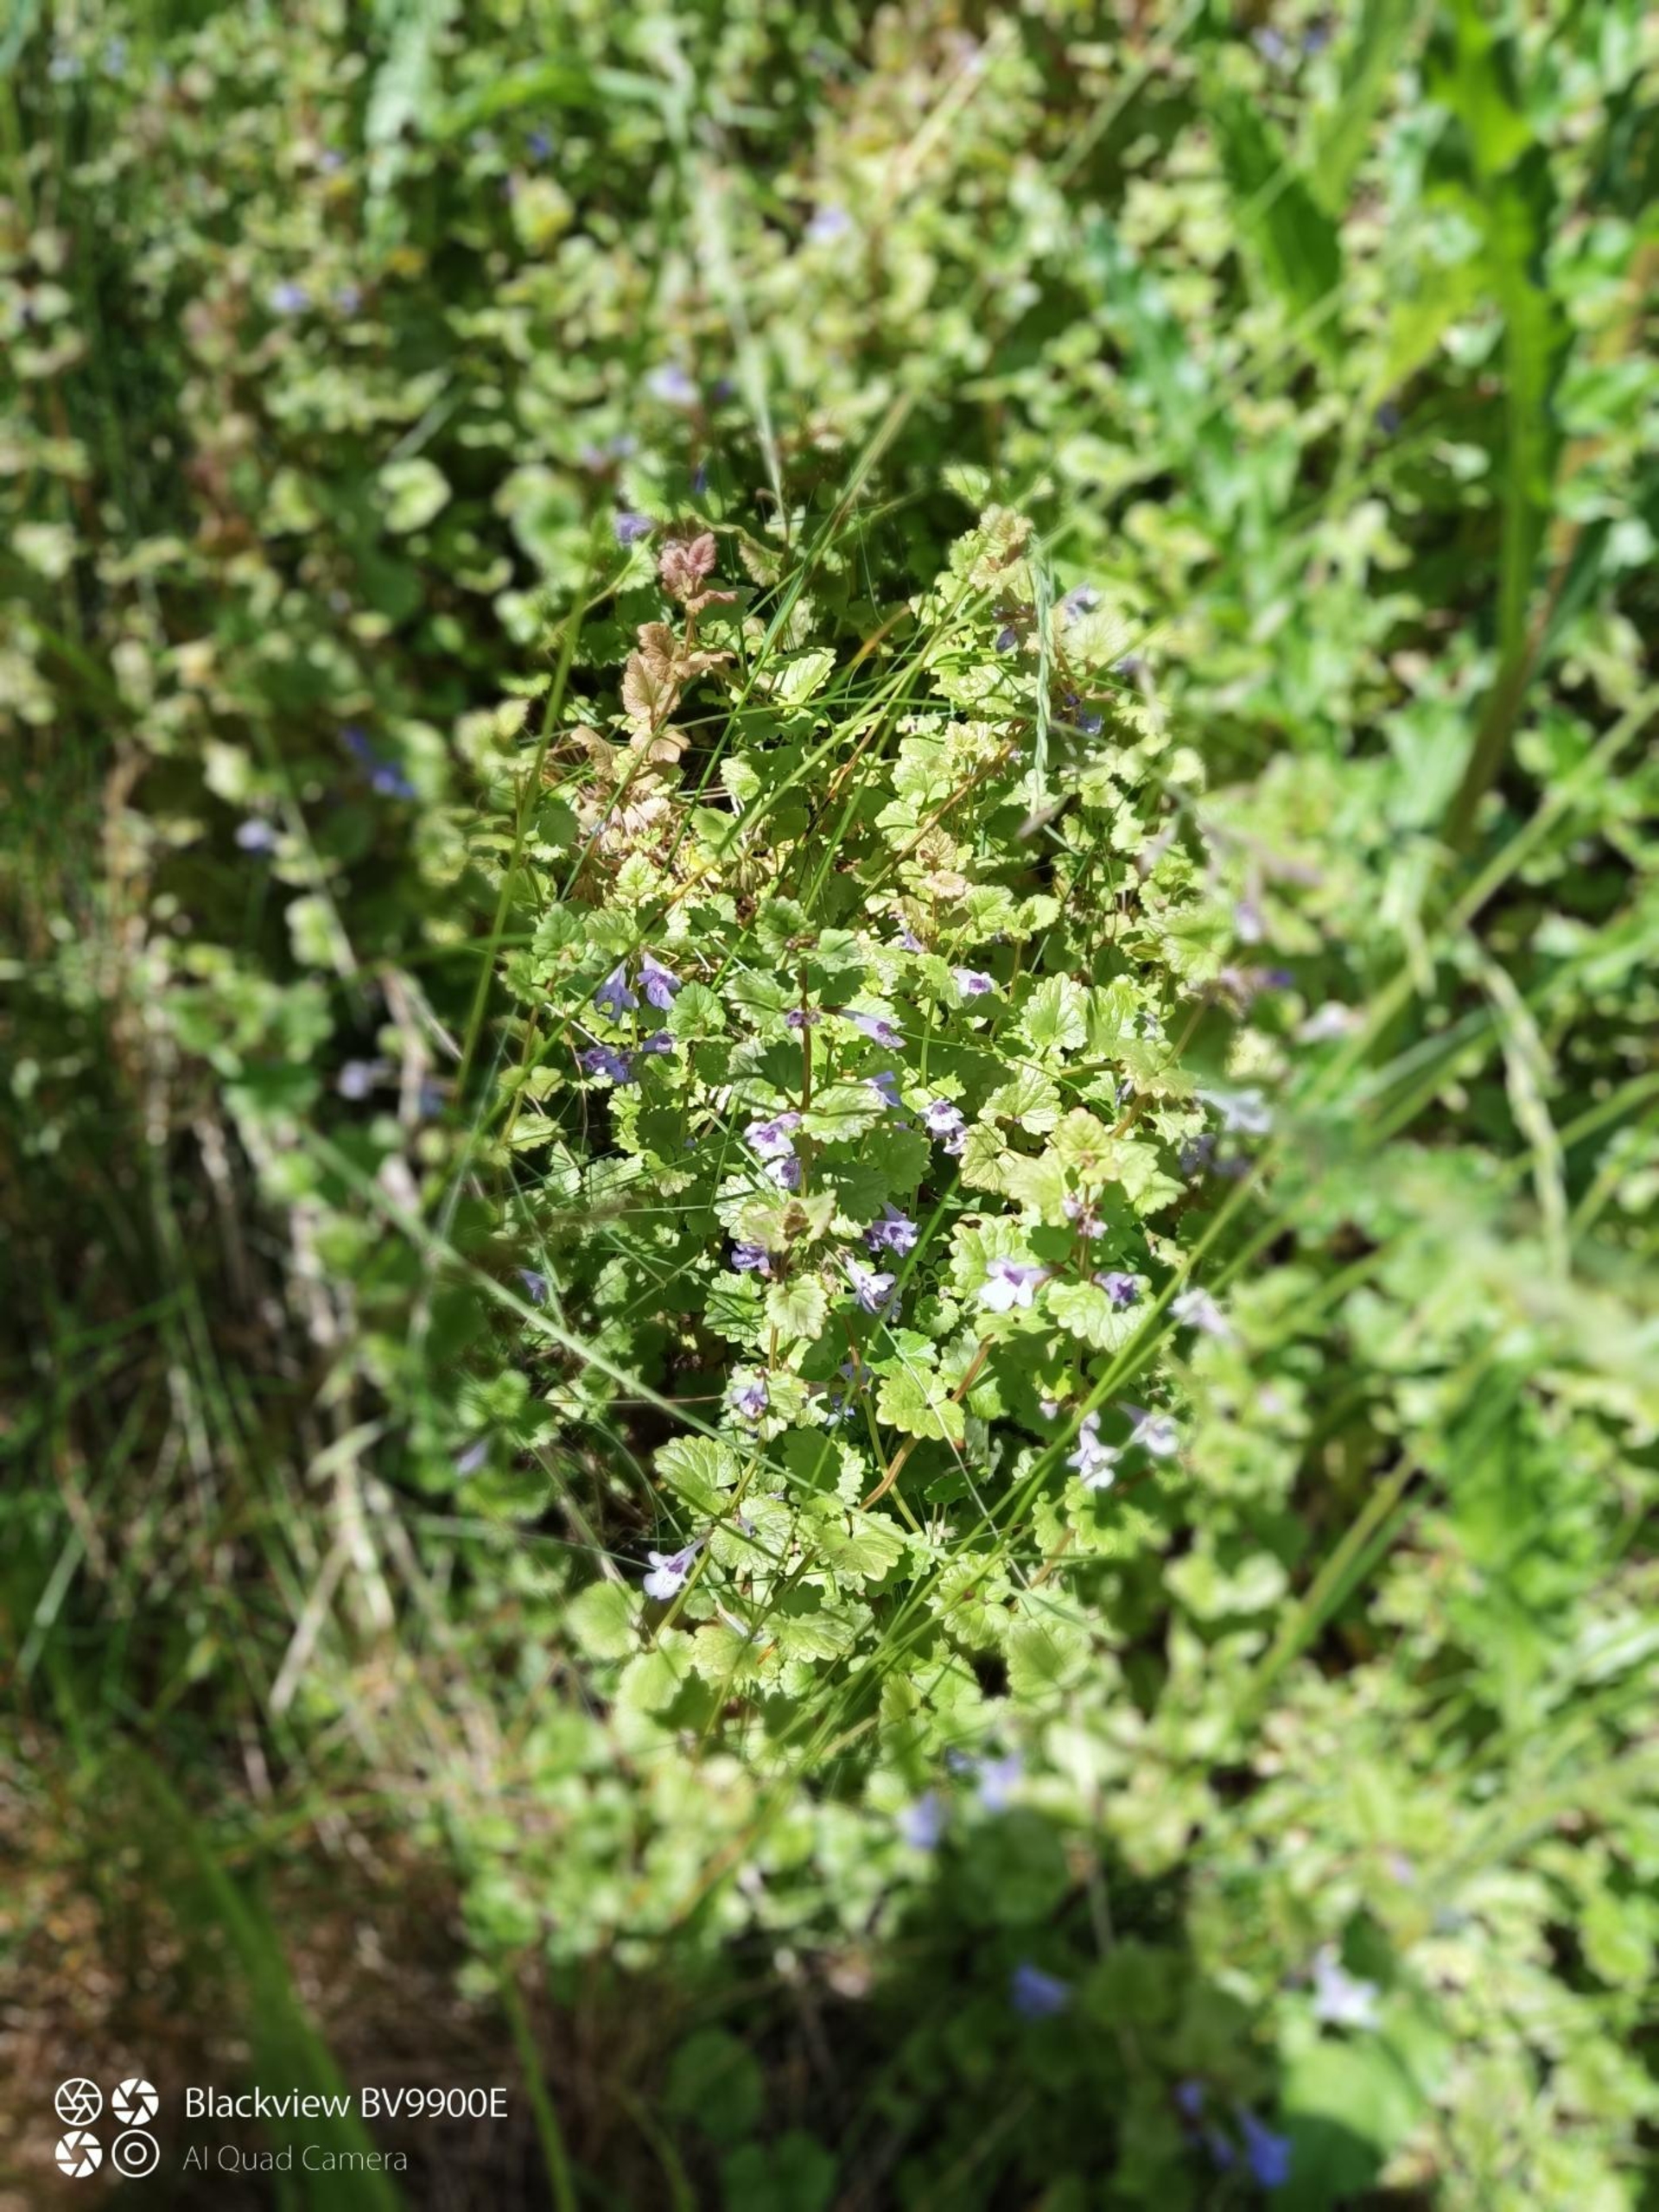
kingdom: Plantae
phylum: Tracheophyta
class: Magnoliopsida
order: Lamiales
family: Lamiaceae
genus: Glechoma
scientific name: Glechoma hederacea
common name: Korsknap
